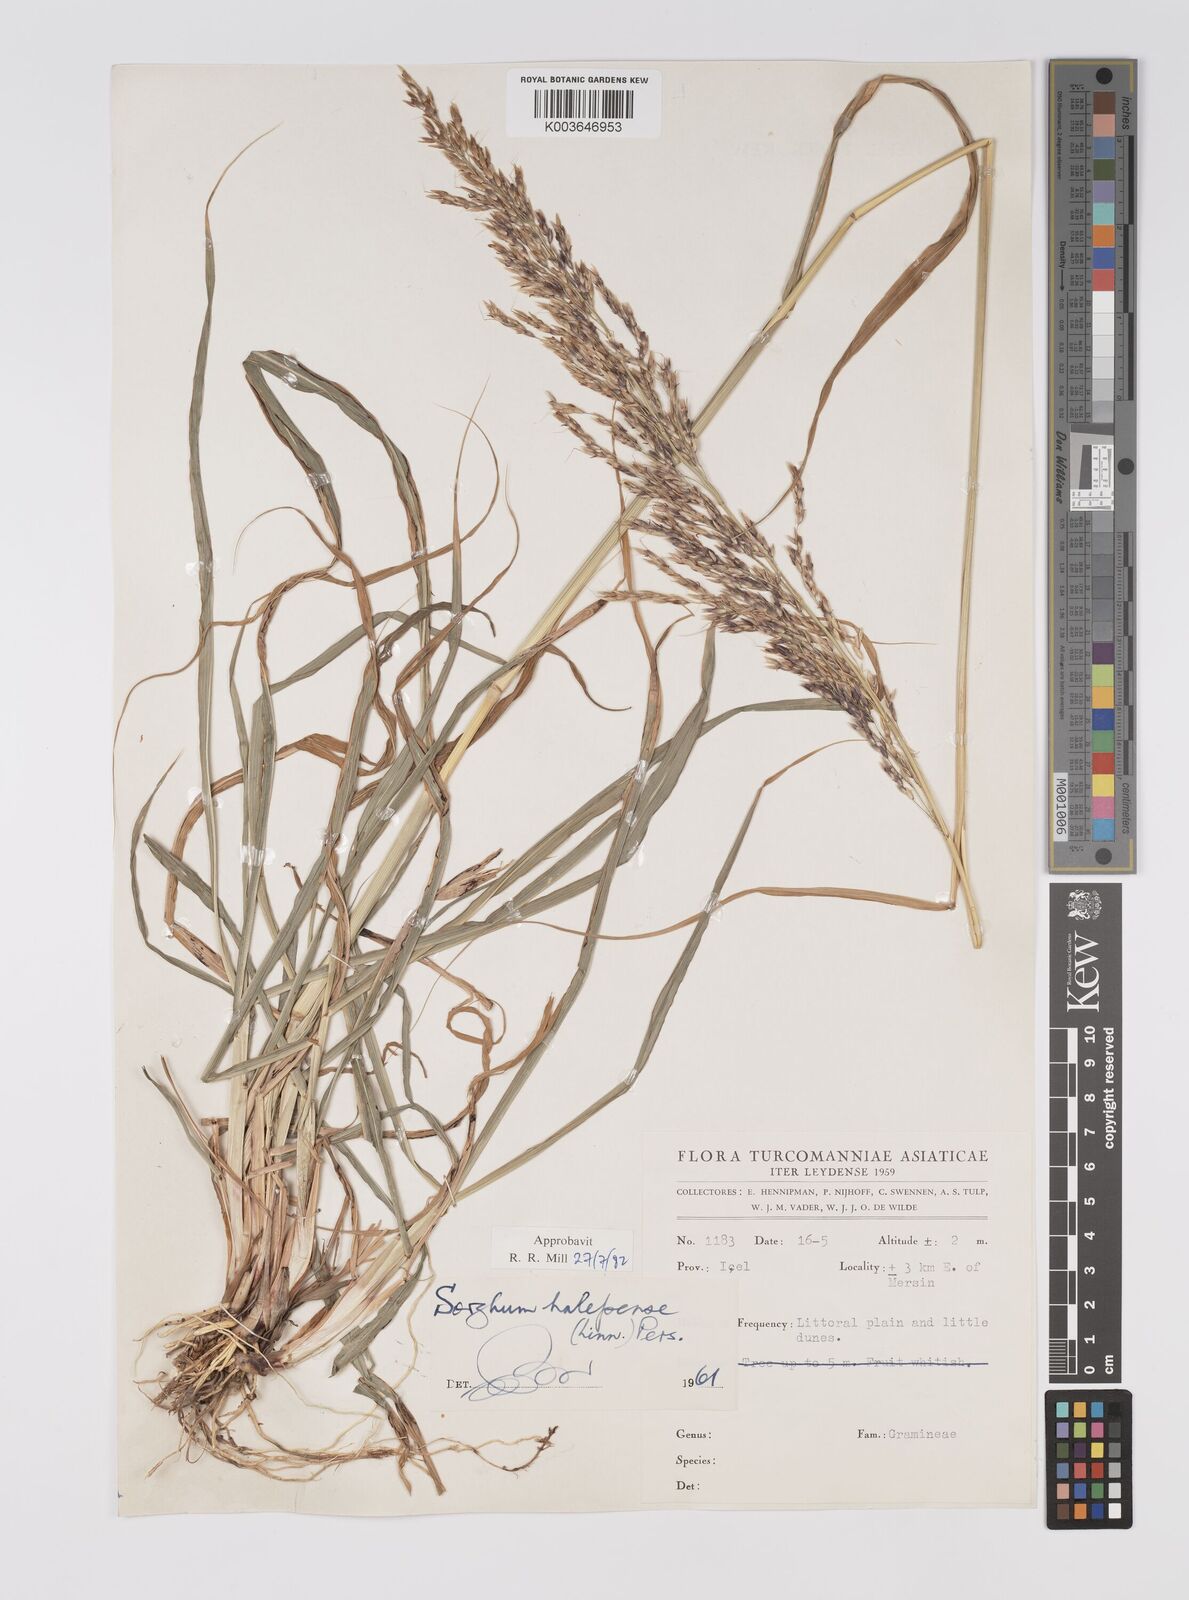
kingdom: Plantae
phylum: Tracheophyta
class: Liliopsida
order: Poales
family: Poaceae
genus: Sorghum
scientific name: Sorghum halepense
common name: Johnson-grass
